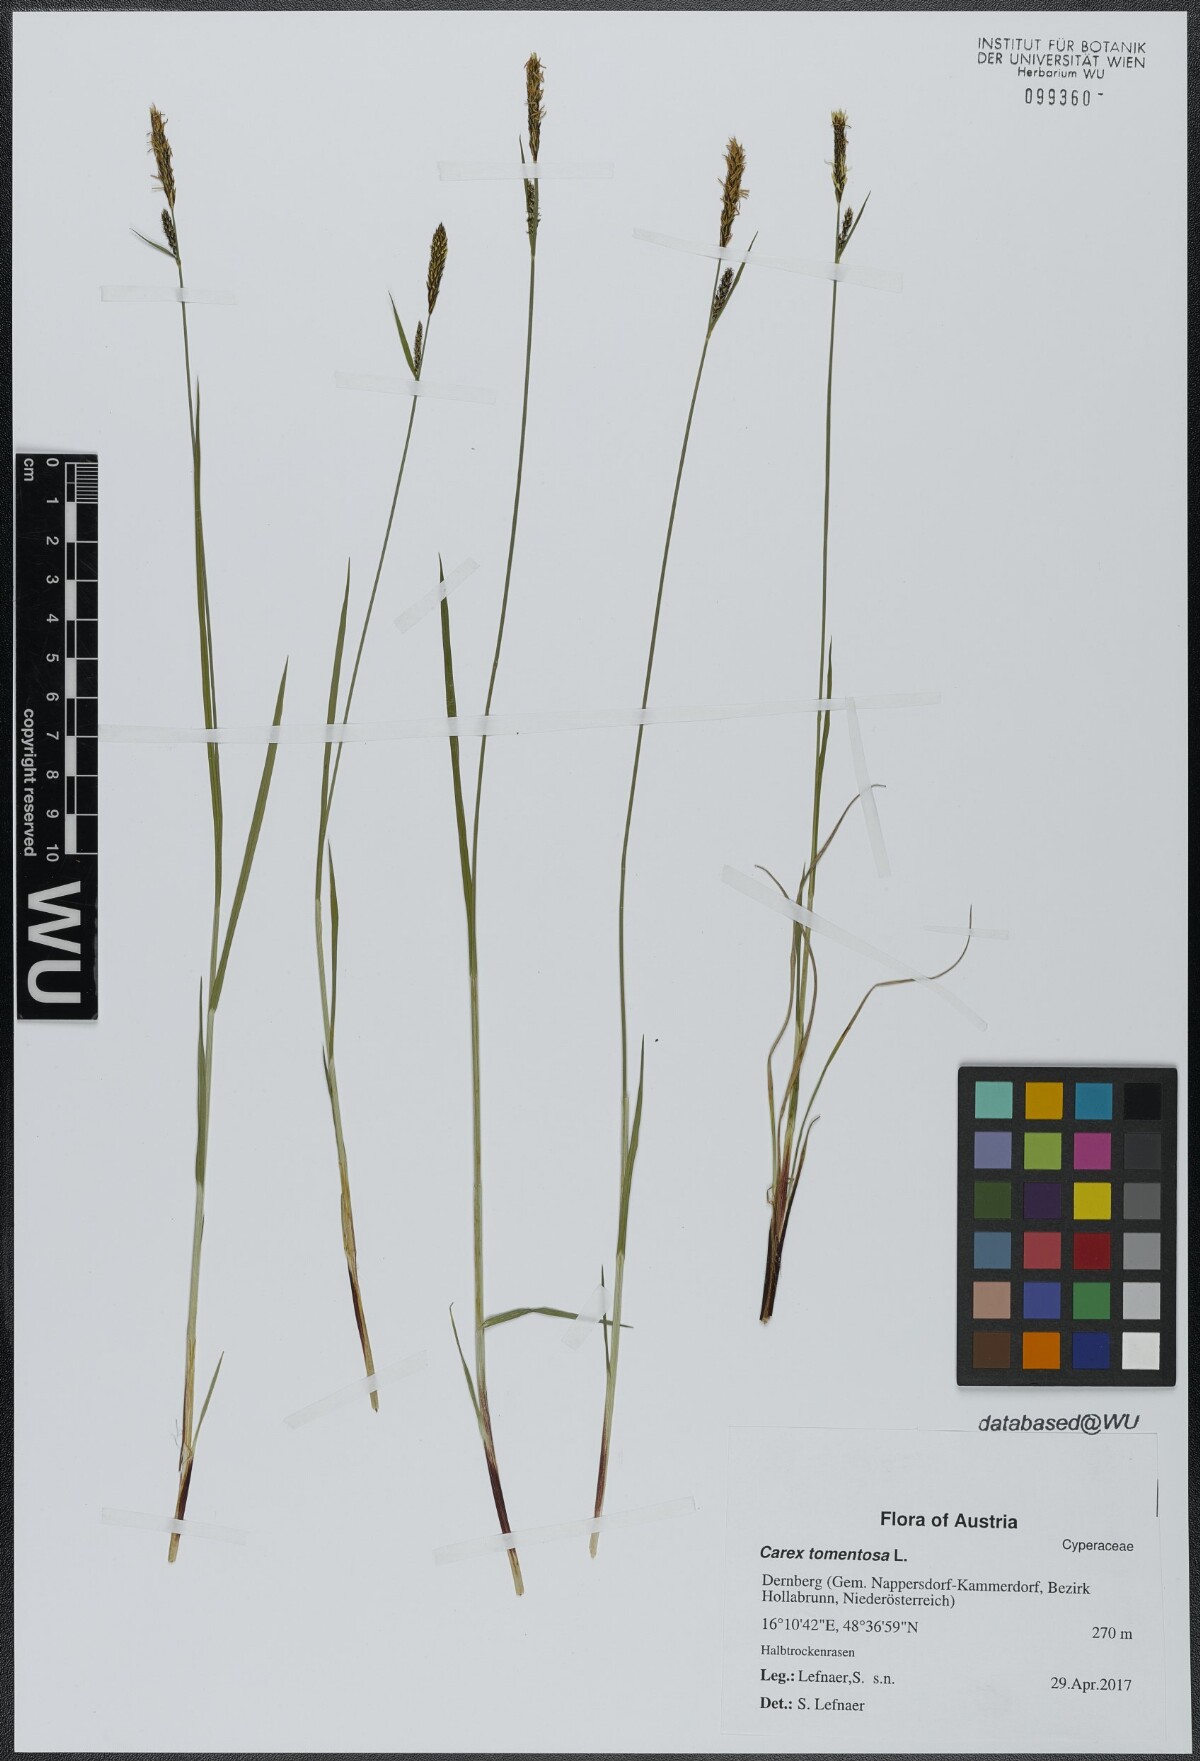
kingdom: Plantae
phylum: Tracheophyta
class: Liliopsida
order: Poales
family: Cyperaceae
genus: Carex
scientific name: Carex tomentosa
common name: Downy-fruited sedge
